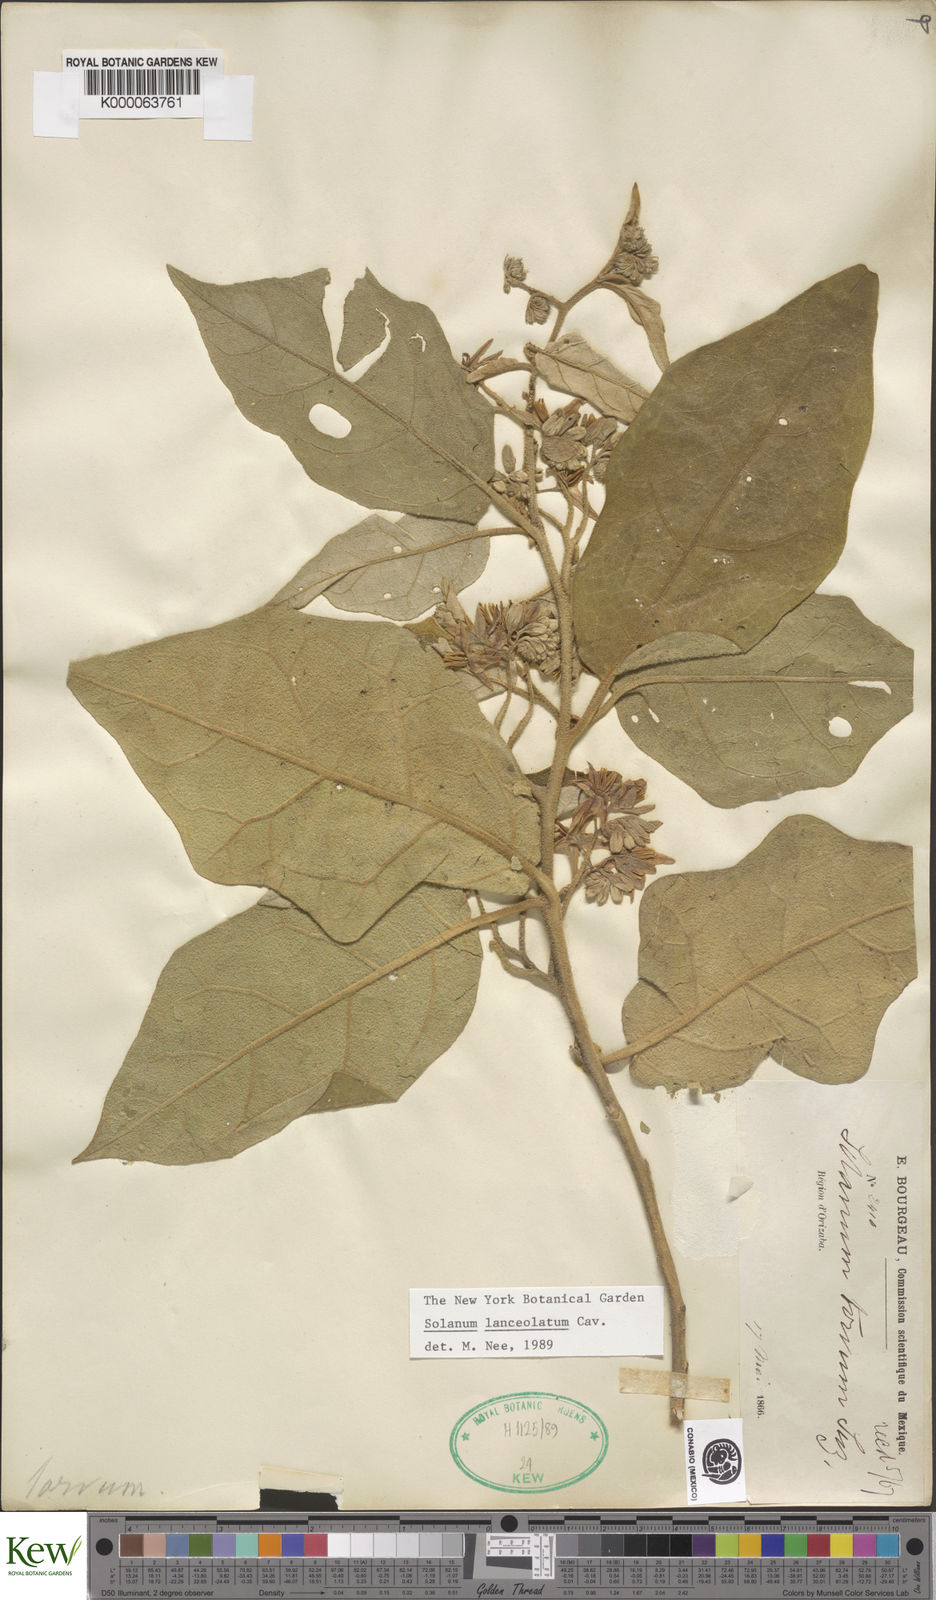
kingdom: Plantae
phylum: Tracheophyta
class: Magnoliopsida
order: Solanales
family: Solanaceae
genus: Solanum
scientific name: Solanum lanceolatum
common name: Orangeberry nightshade
